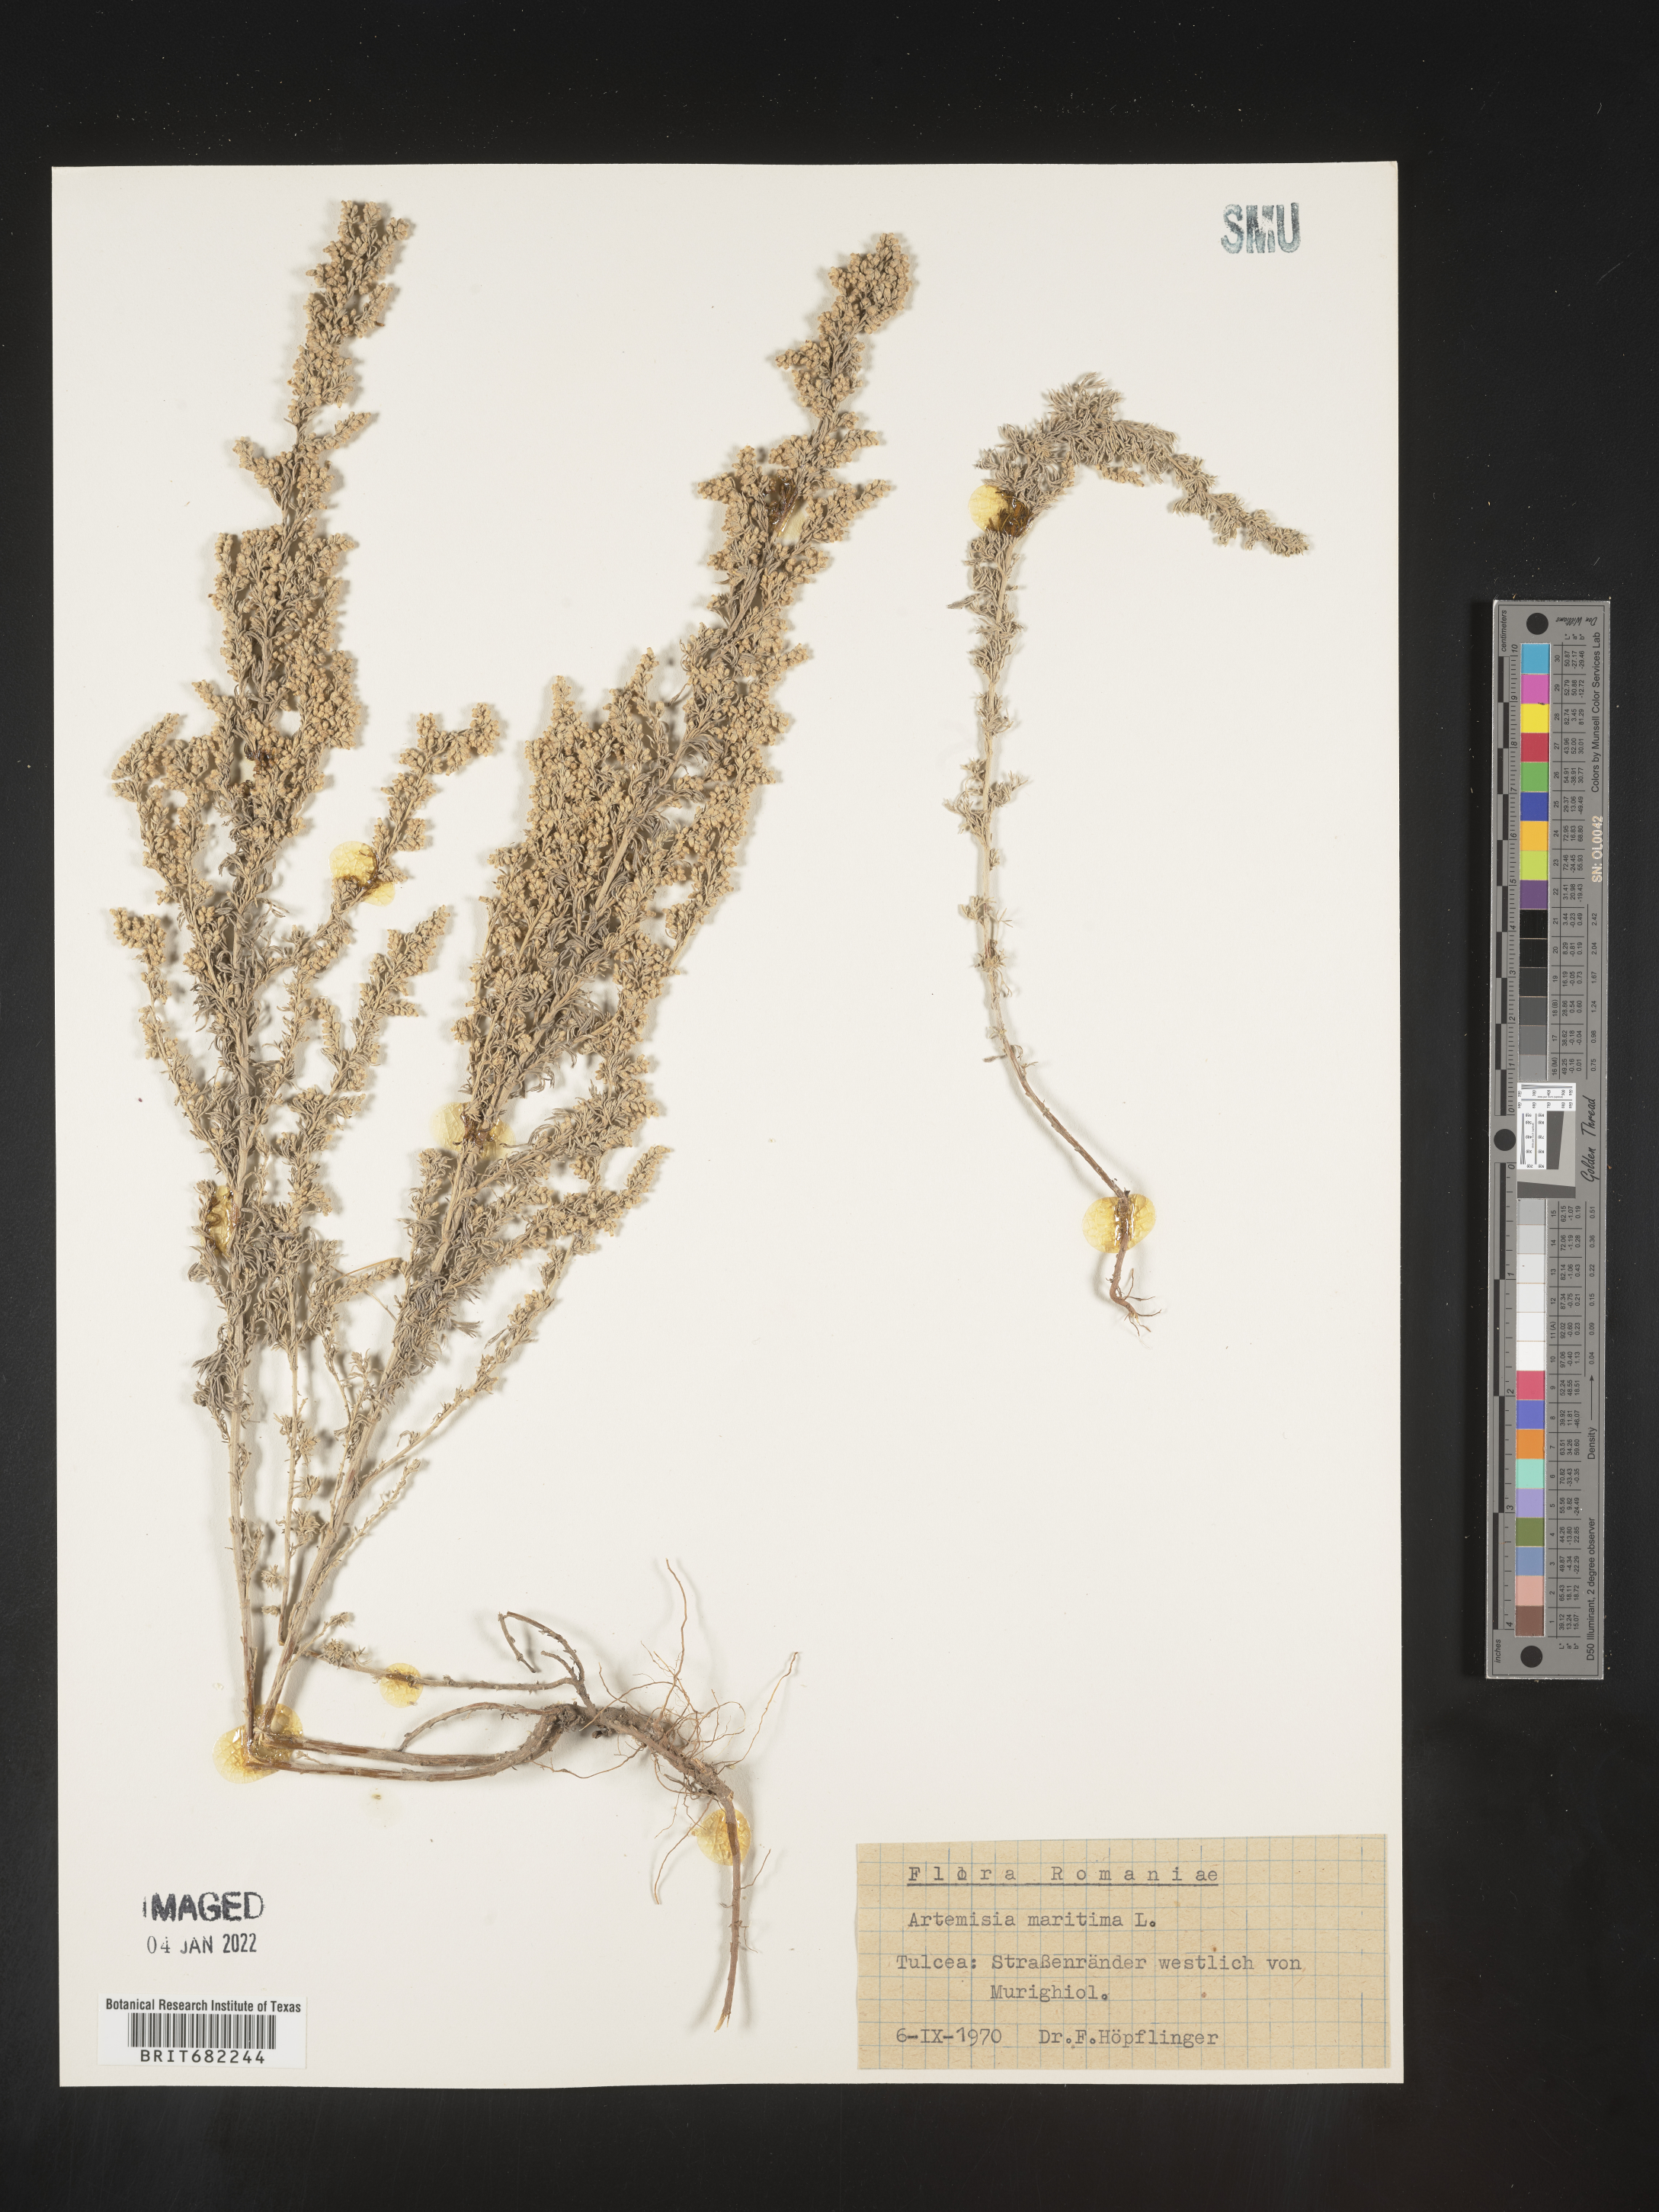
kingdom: Plantae
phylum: Tracheophyta
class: Magnoliopsida
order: Asterales
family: Asteraceae
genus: Artemisia
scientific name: Artemisia
